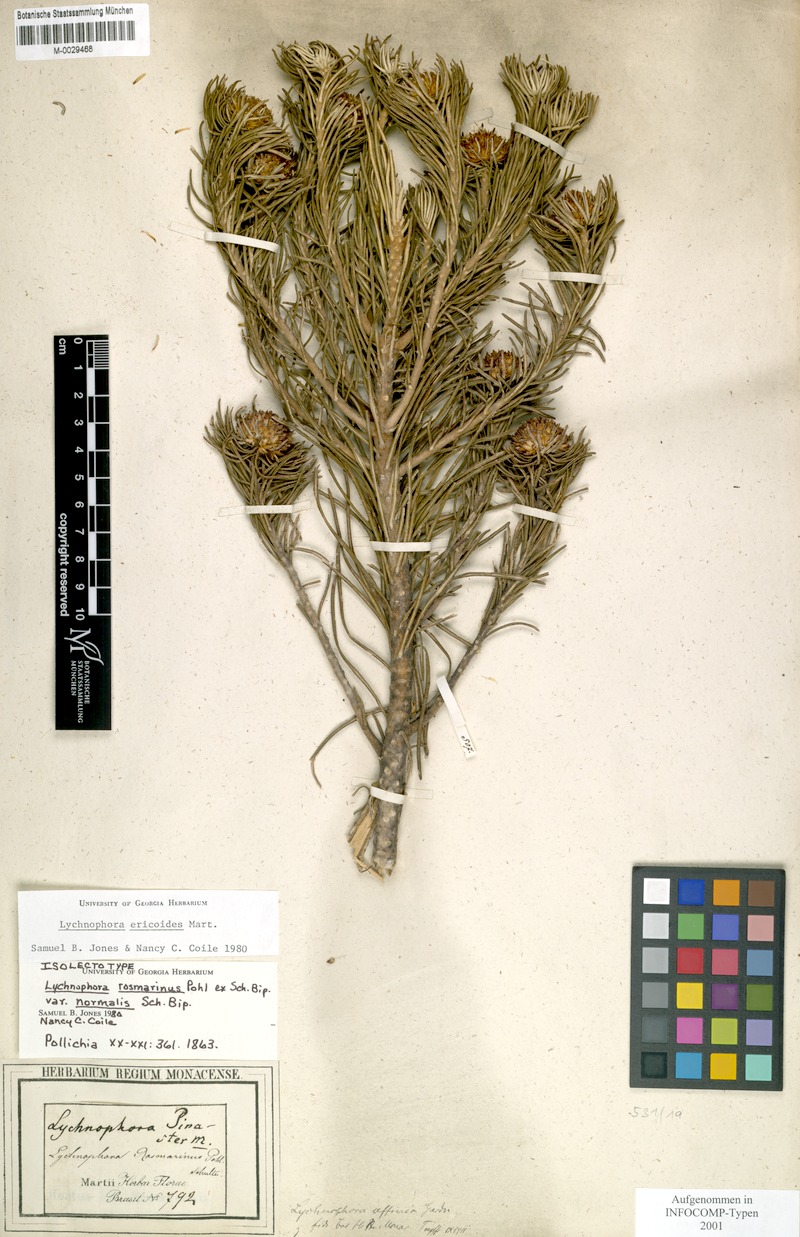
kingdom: Plantae
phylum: Tracheophyta
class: Magnoliopsida
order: Asterales
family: Asteraceae
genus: Lychnophora
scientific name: Lychnophora ericoides
